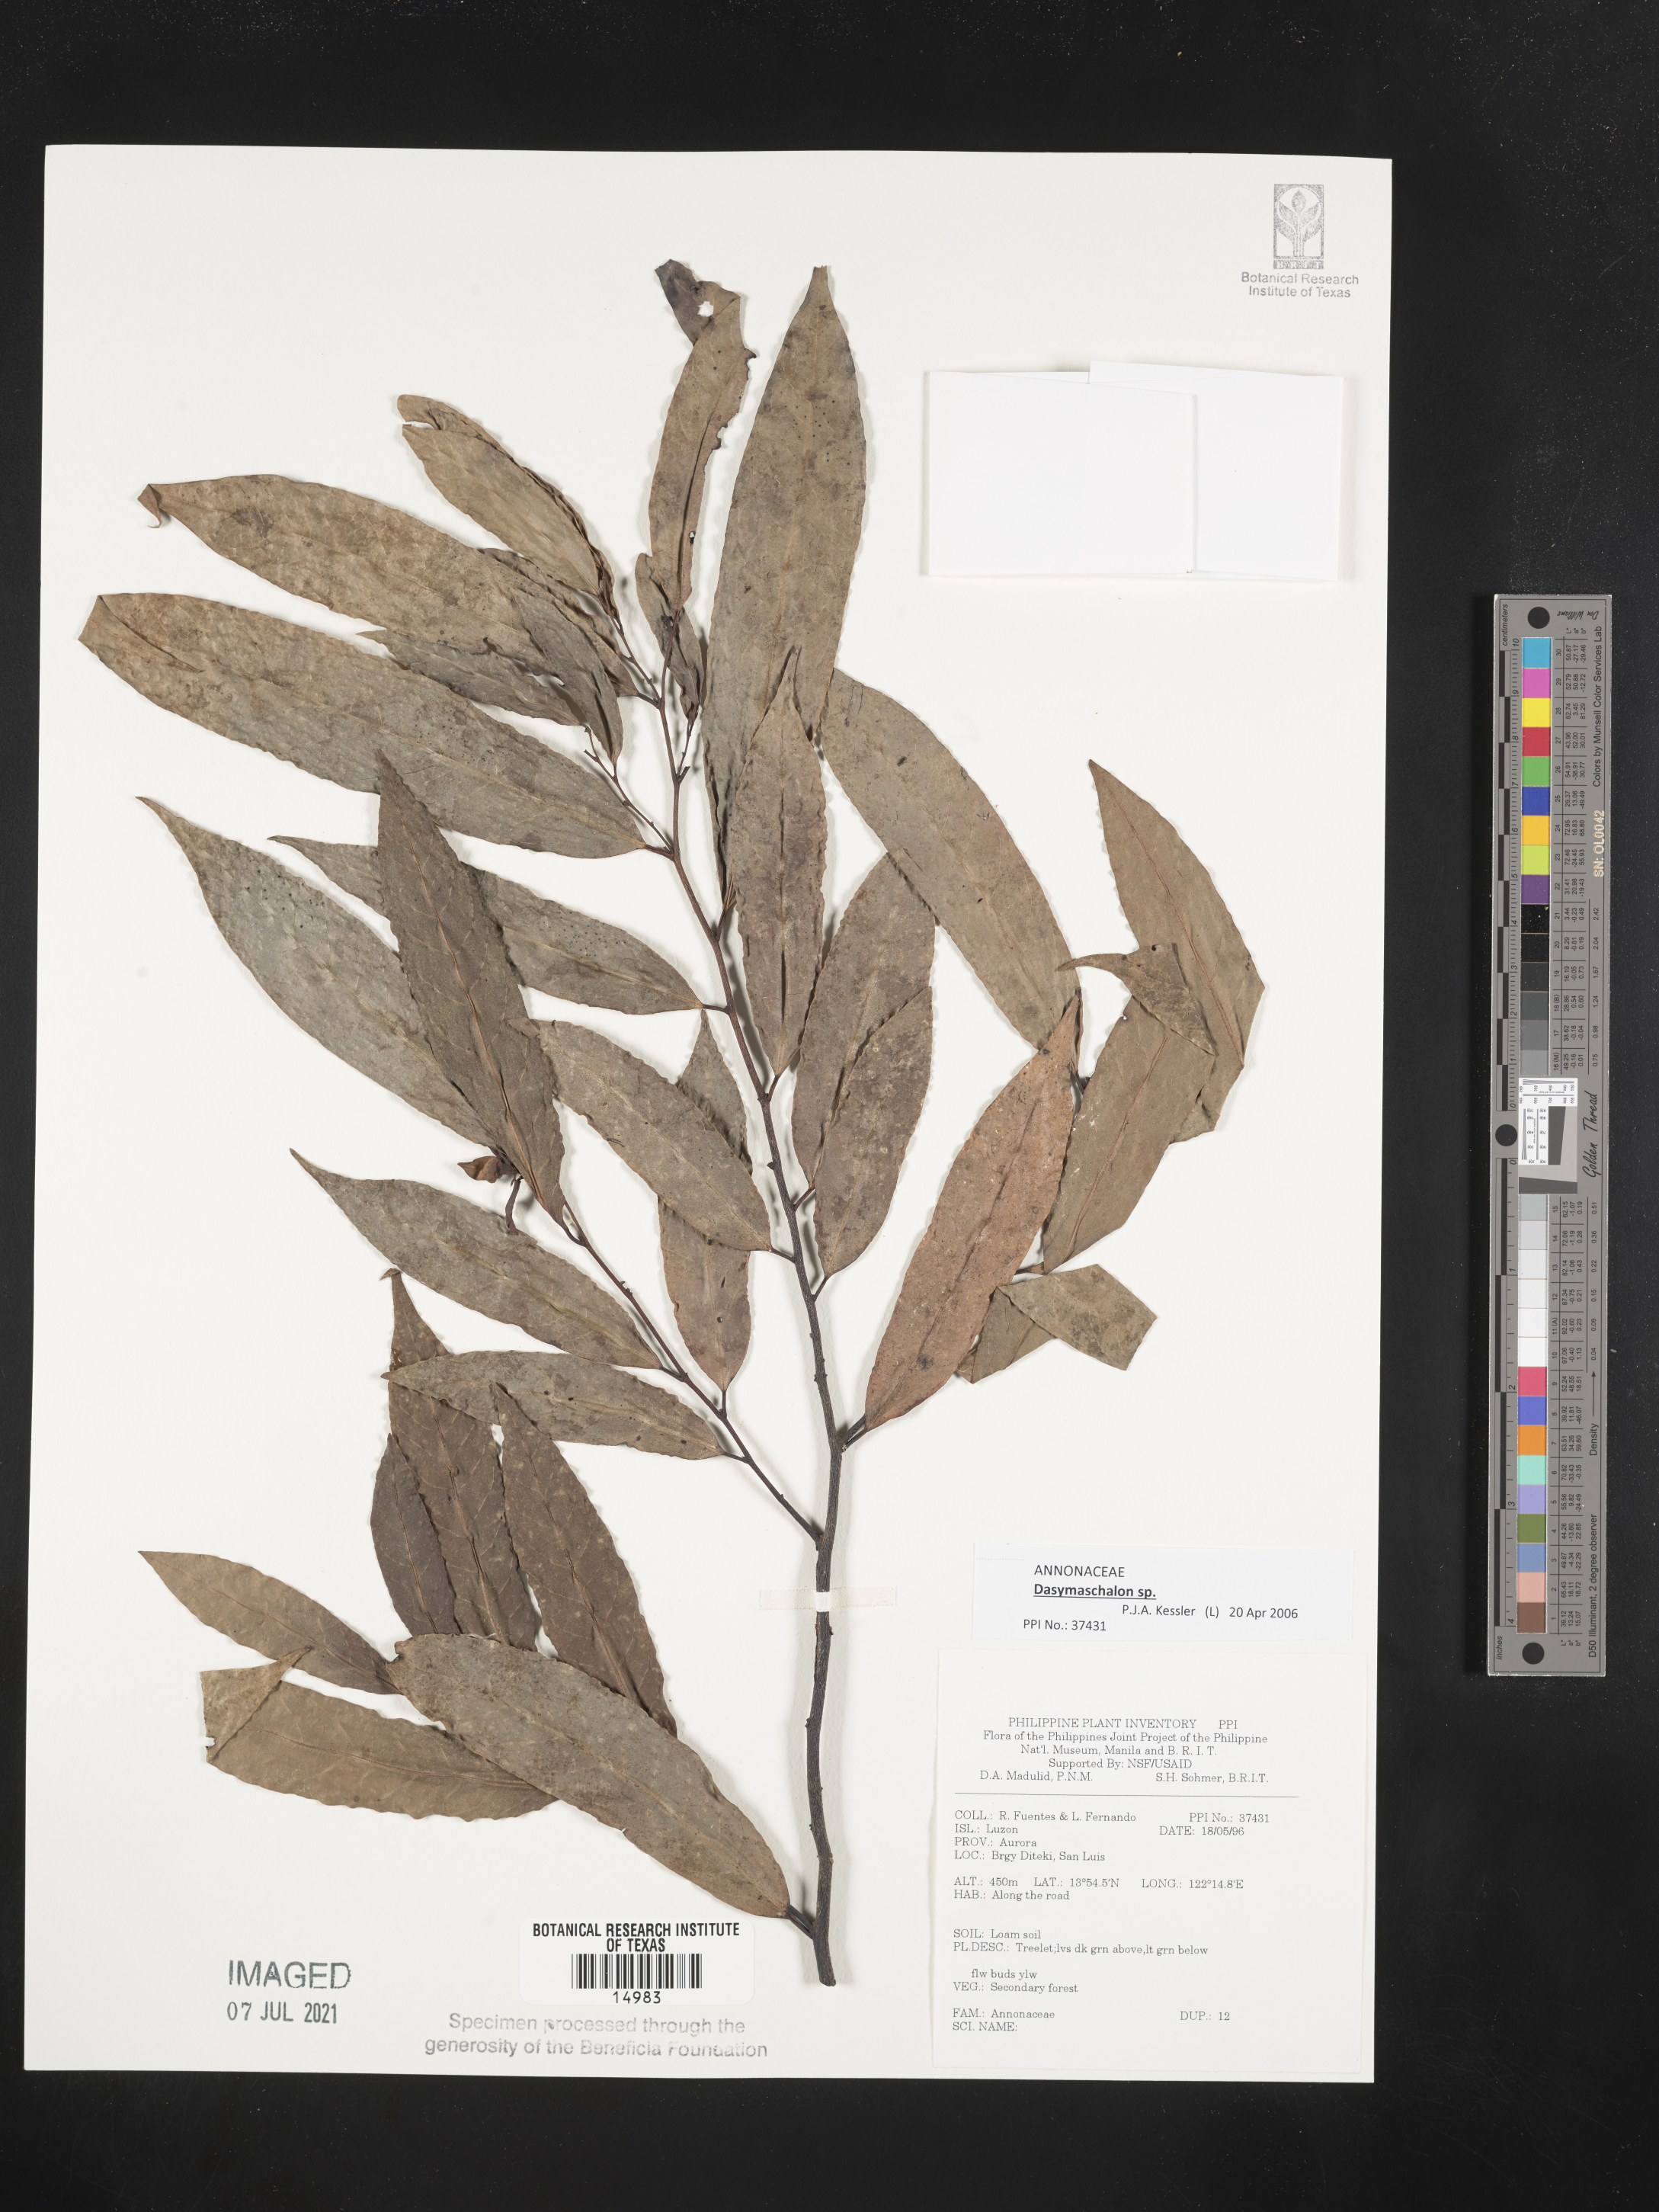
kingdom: Plantae
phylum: Tracheophyta
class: Magnoliopsida
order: Magnoliales
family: Annonaceae
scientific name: Annonaceae
